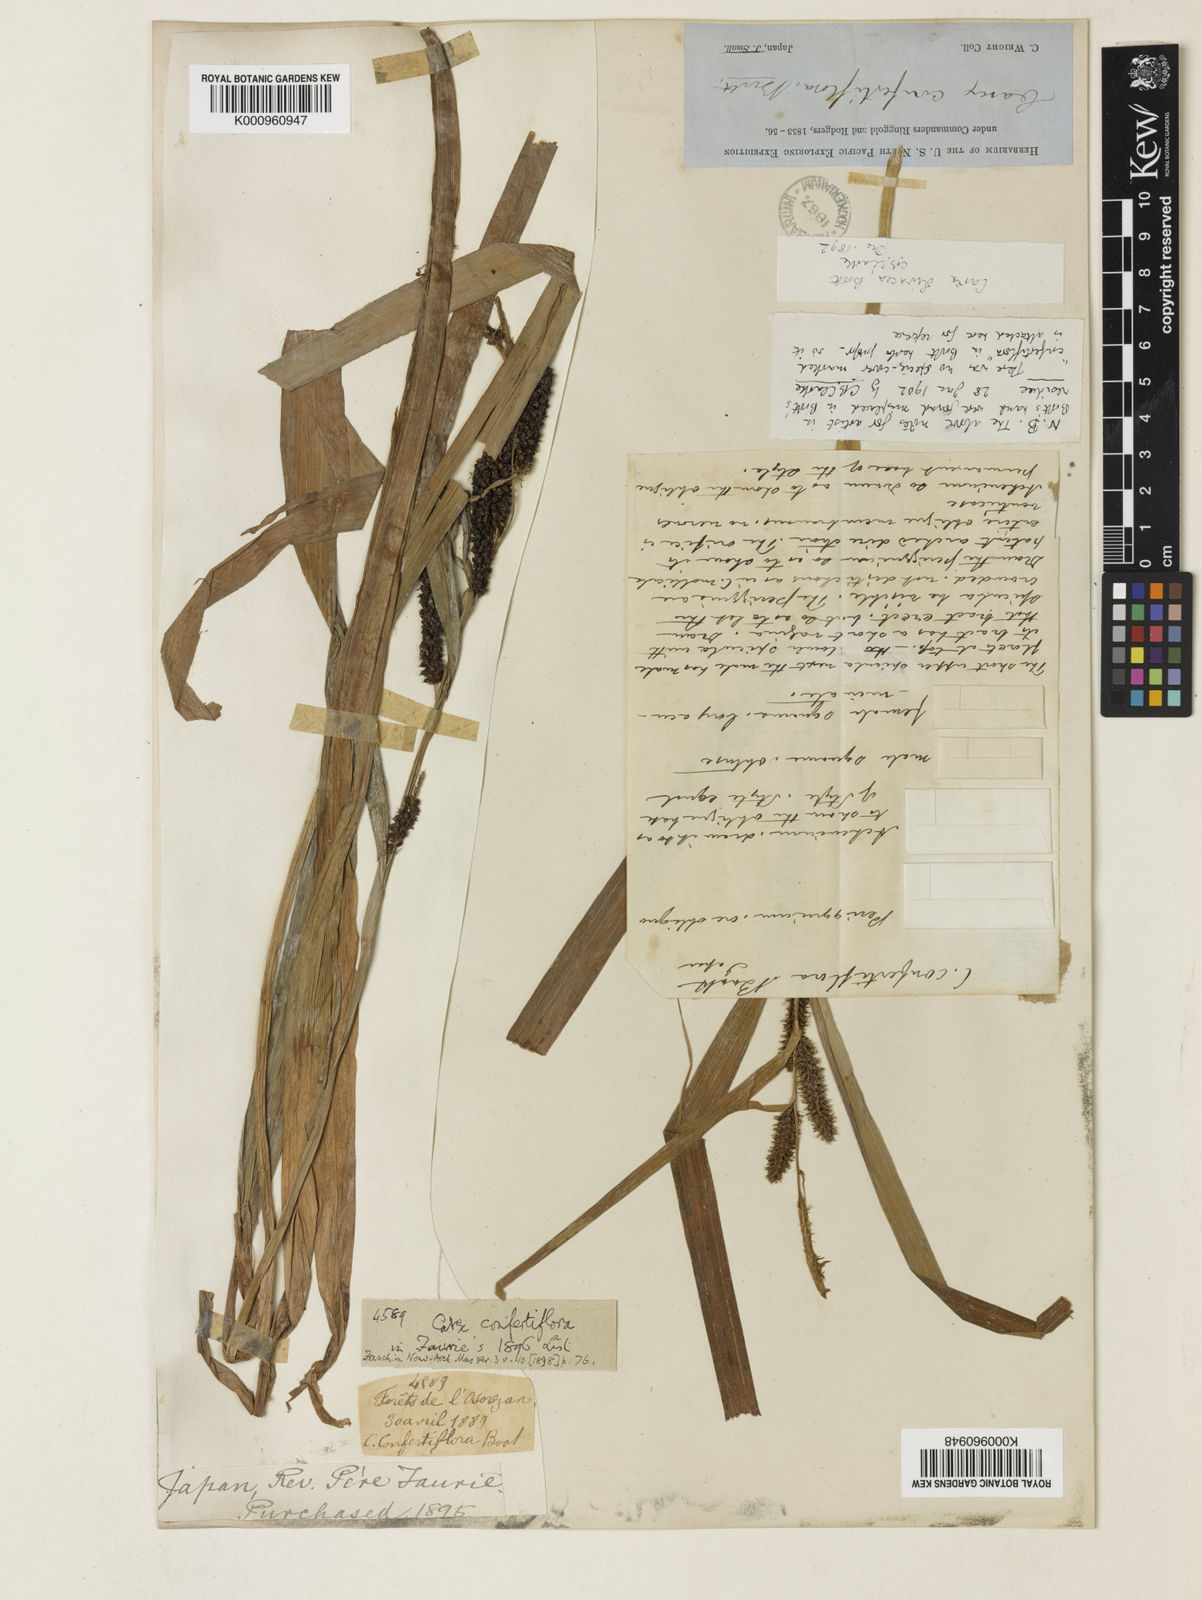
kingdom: Plantae
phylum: Tracheophyta
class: Liliopsida
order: Poales
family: Cyperaceae
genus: Carex
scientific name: Carex olivacea
